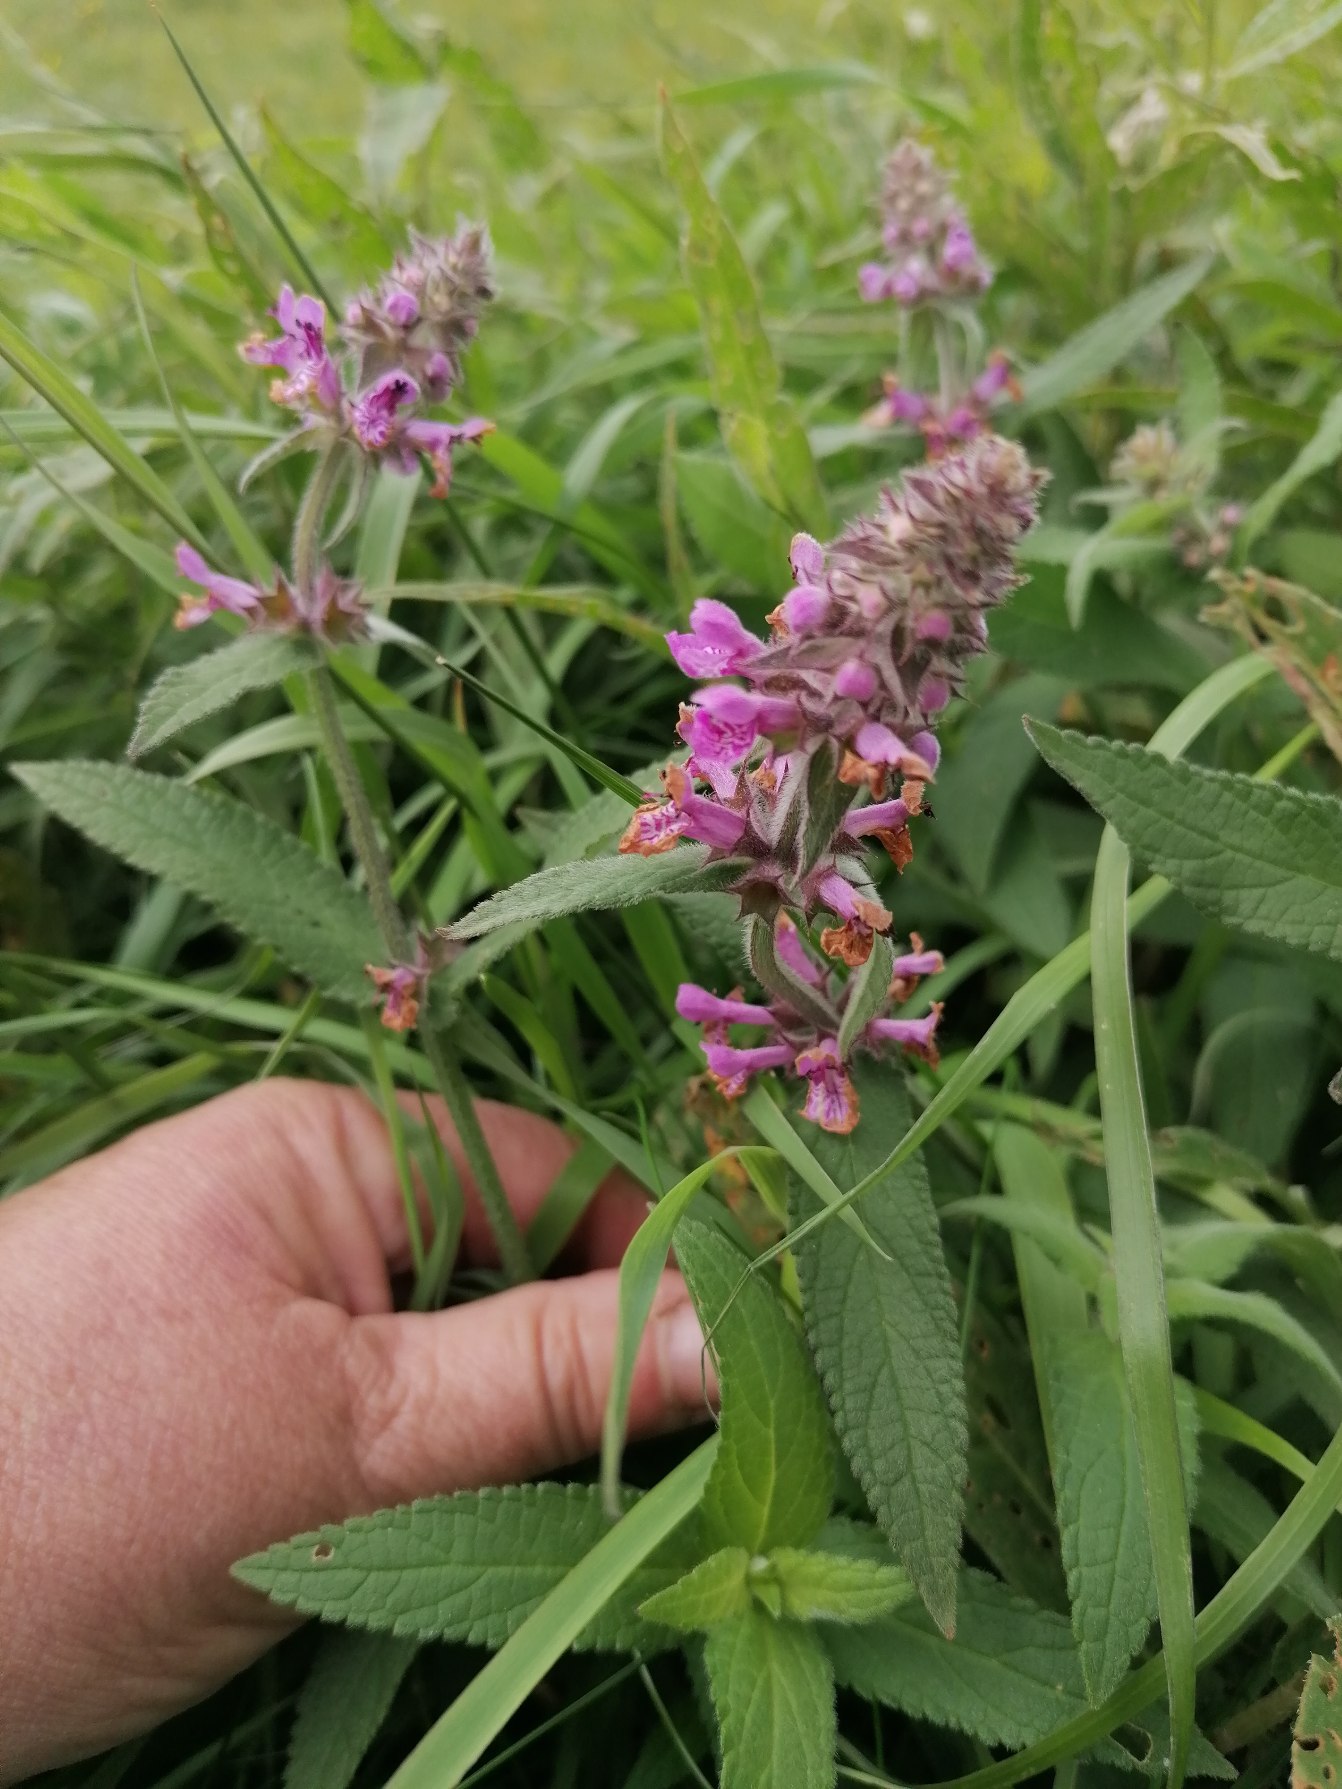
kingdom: Plantae
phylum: Tracheophyta
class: Magnoliopsida
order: Lamiales
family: Lamiaceae
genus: Stachys
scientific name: Stachys palustris
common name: Kær-galtetand
